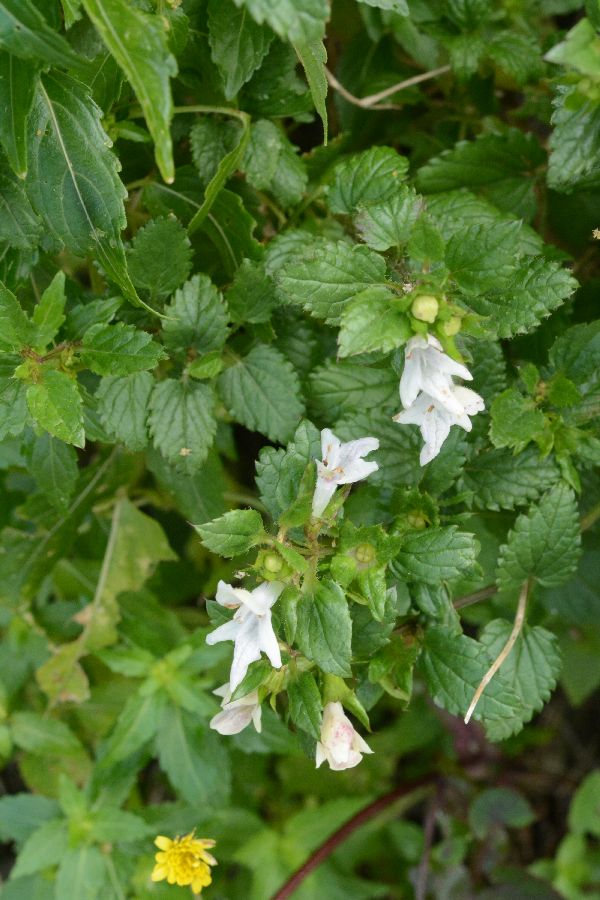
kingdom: Plantae
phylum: Tracheophyta
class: Magnoliopsida
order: Lamiales
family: Lamiaceae
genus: Prasium
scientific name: Prasium majus
